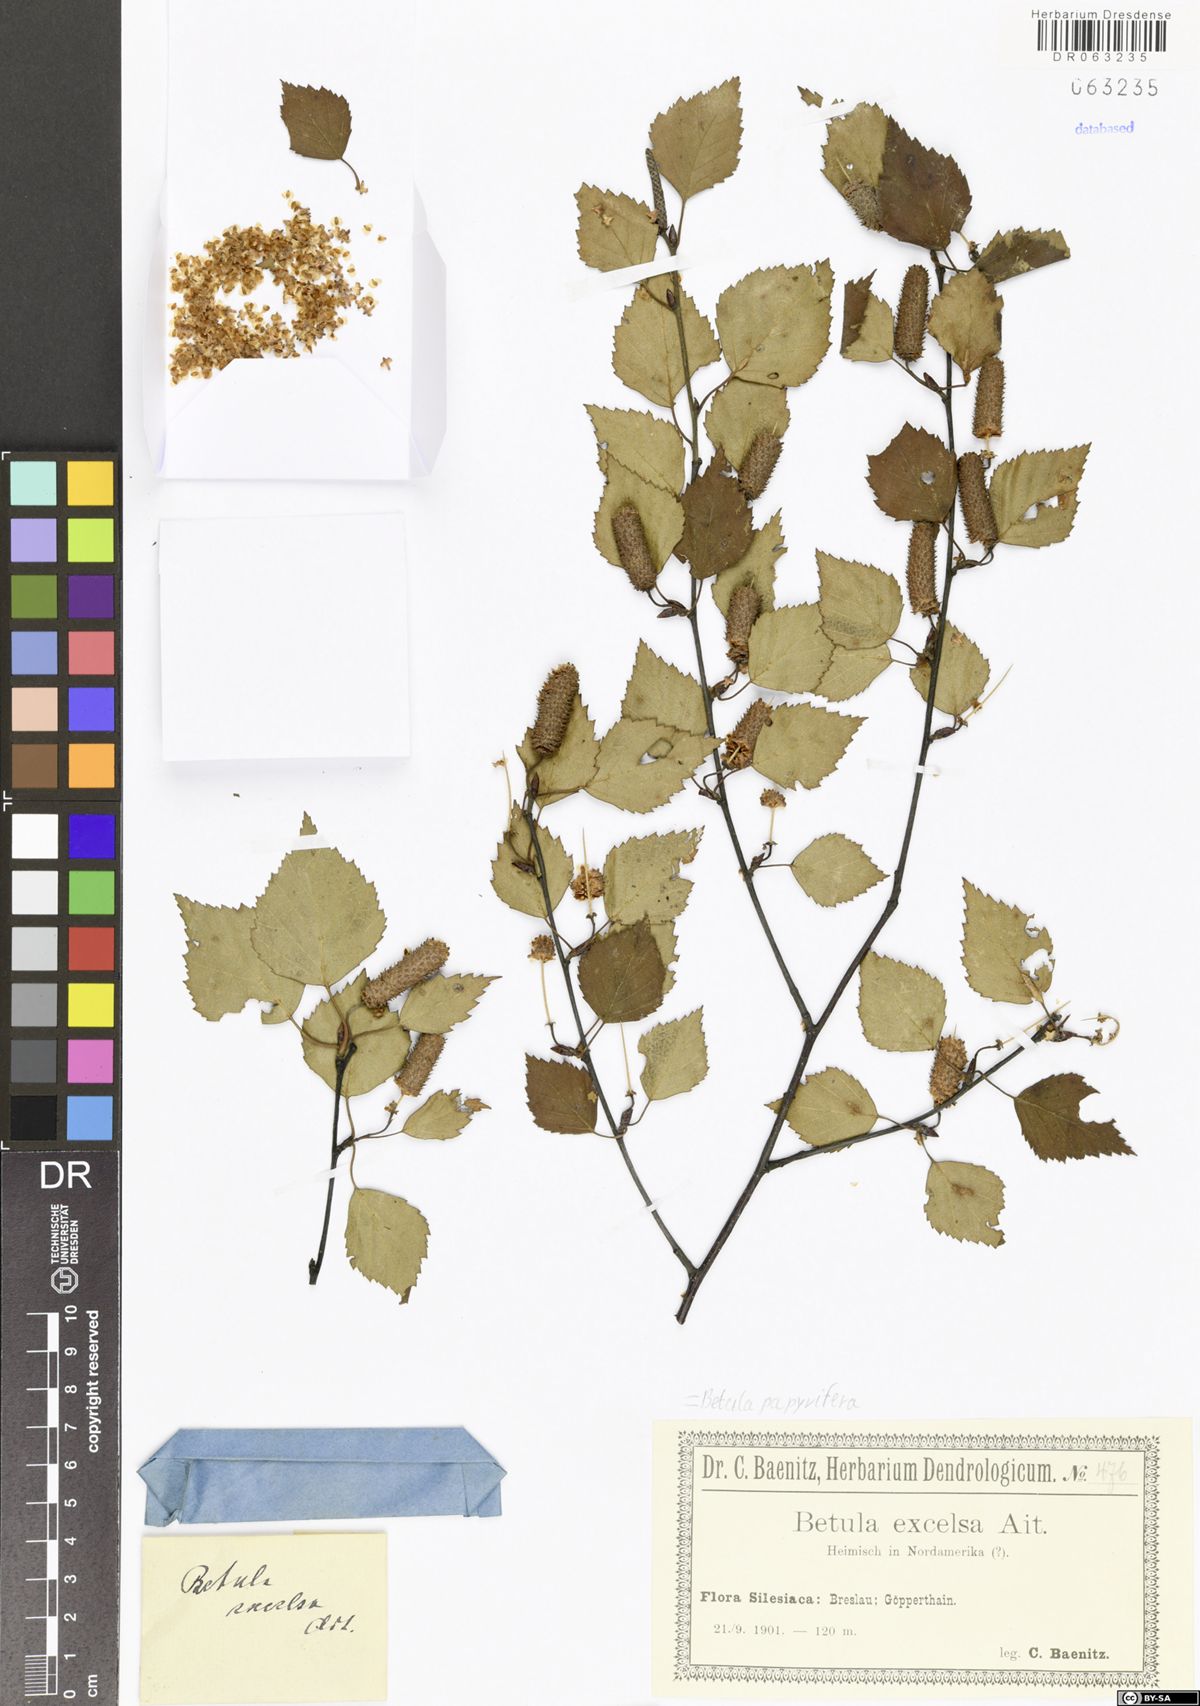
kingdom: Plantae
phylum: Tracheophyta
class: Magnoliopsida
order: Fagales
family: Betulaceae
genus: Betula
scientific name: Betula papyrifera
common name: Paper birch
